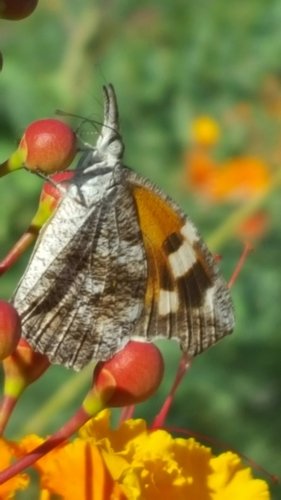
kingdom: Animalia
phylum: Arthropoda
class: Insecta
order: Lepidoptera
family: Nymphalidae
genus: Libytheana
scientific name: Libytheana carinenta
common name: American Snout
